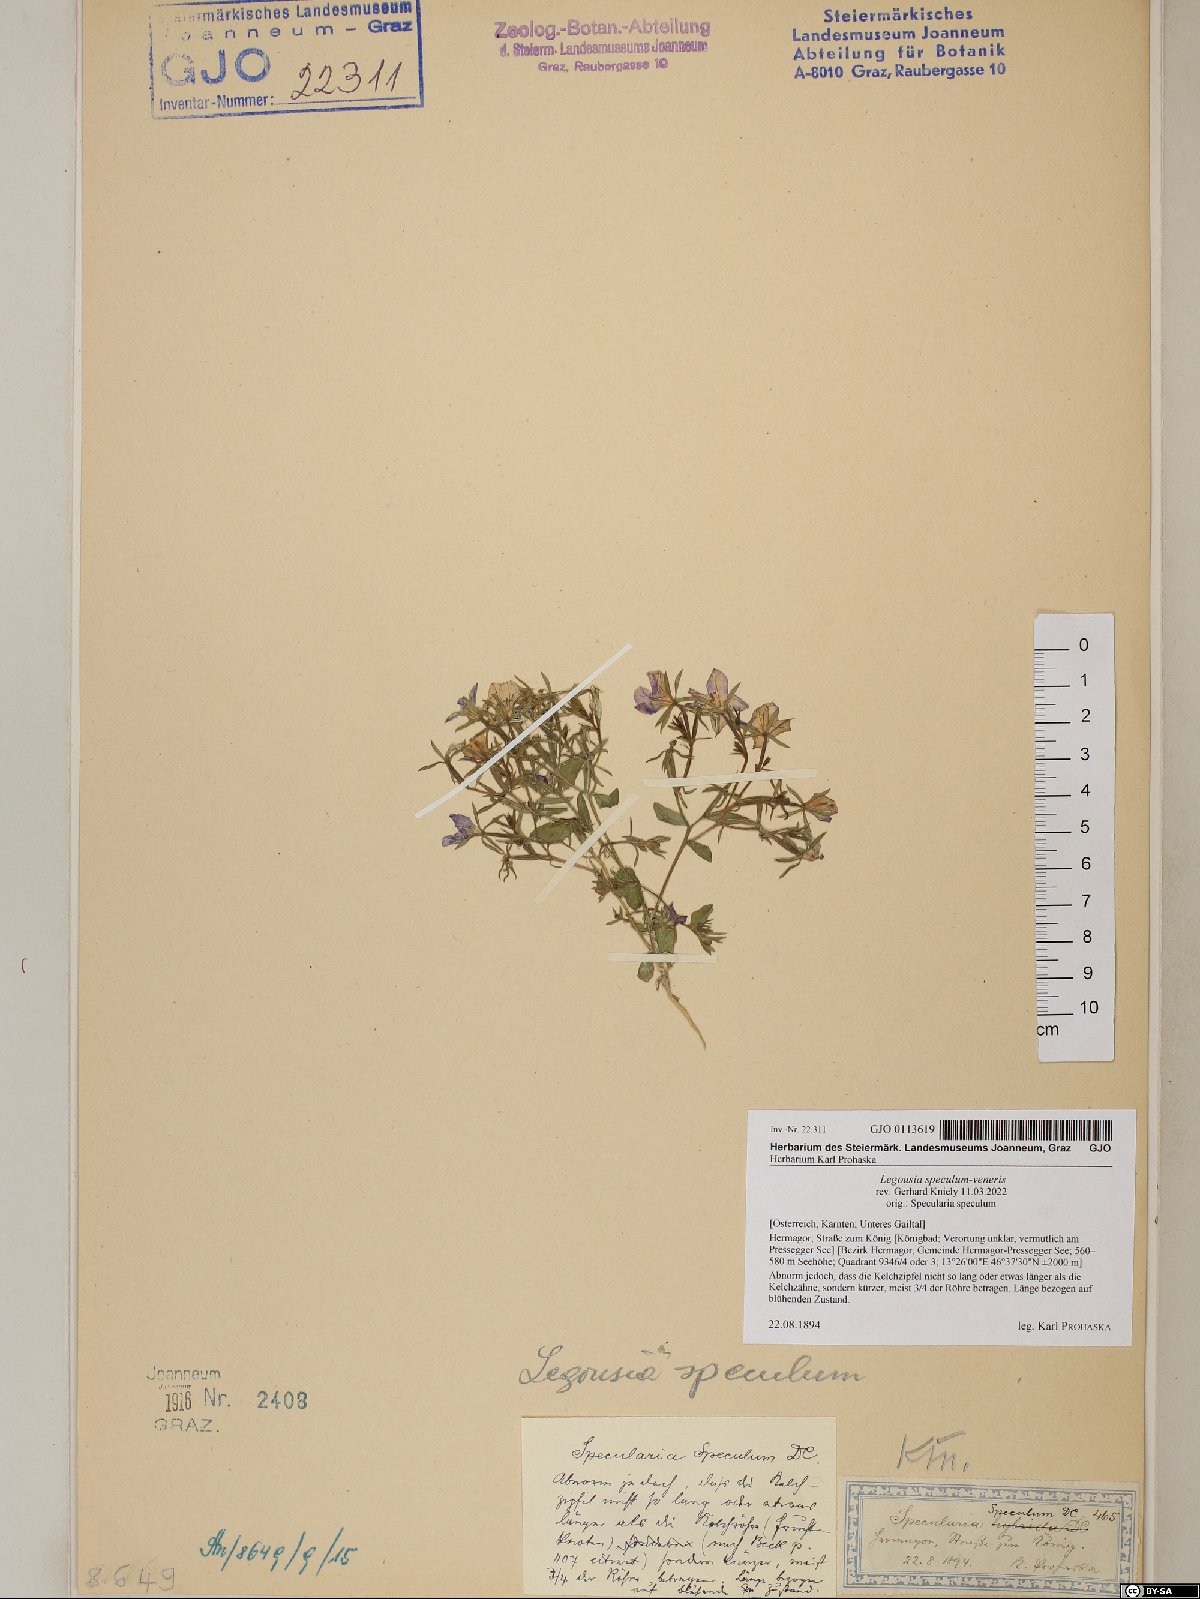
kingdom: Plantae
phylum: Tracheophyta
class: Magnoliopsida
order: Asterales
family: Campanulaceae
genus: Legousia
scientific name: Legousia speculum-veneris
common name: Large venus's-looking-glass
